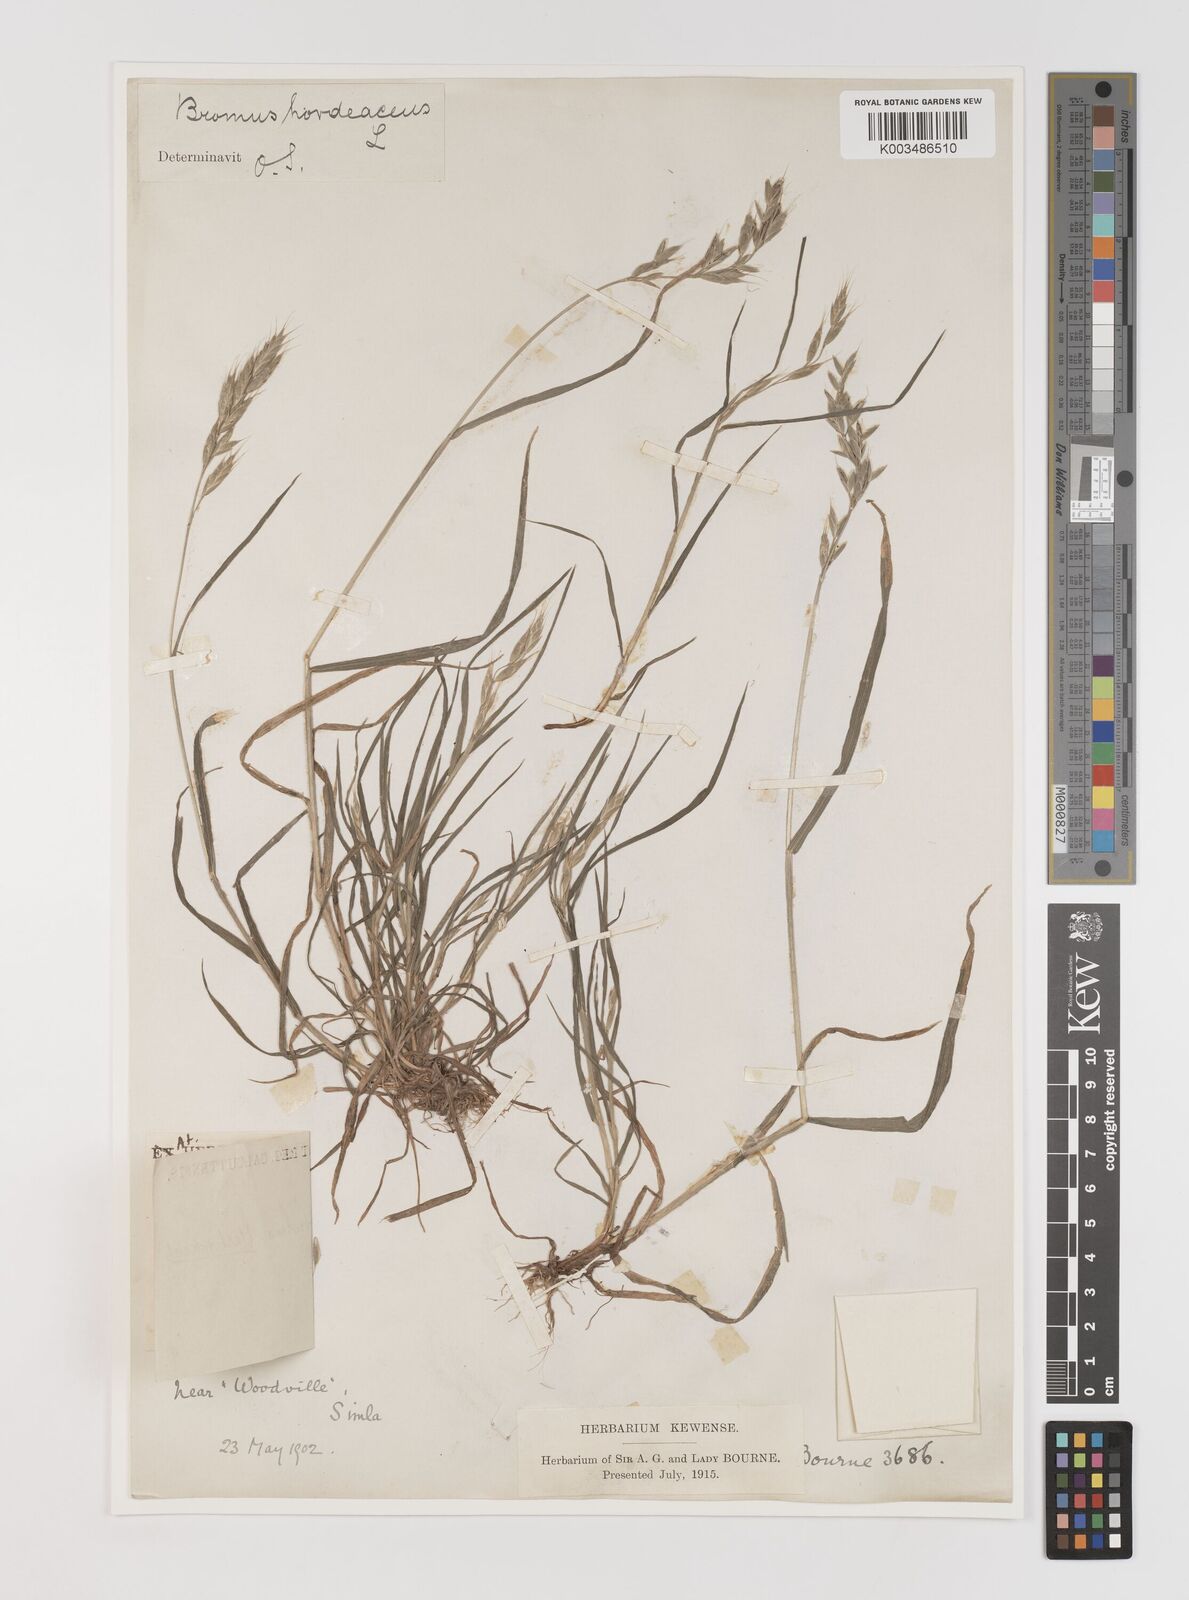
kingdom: Plantae
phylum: Tracheophyta
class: Liliopsida
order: Poales
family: Poaceae
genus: Bromus
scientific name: Bromus hordeaceus
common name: Soft brome
